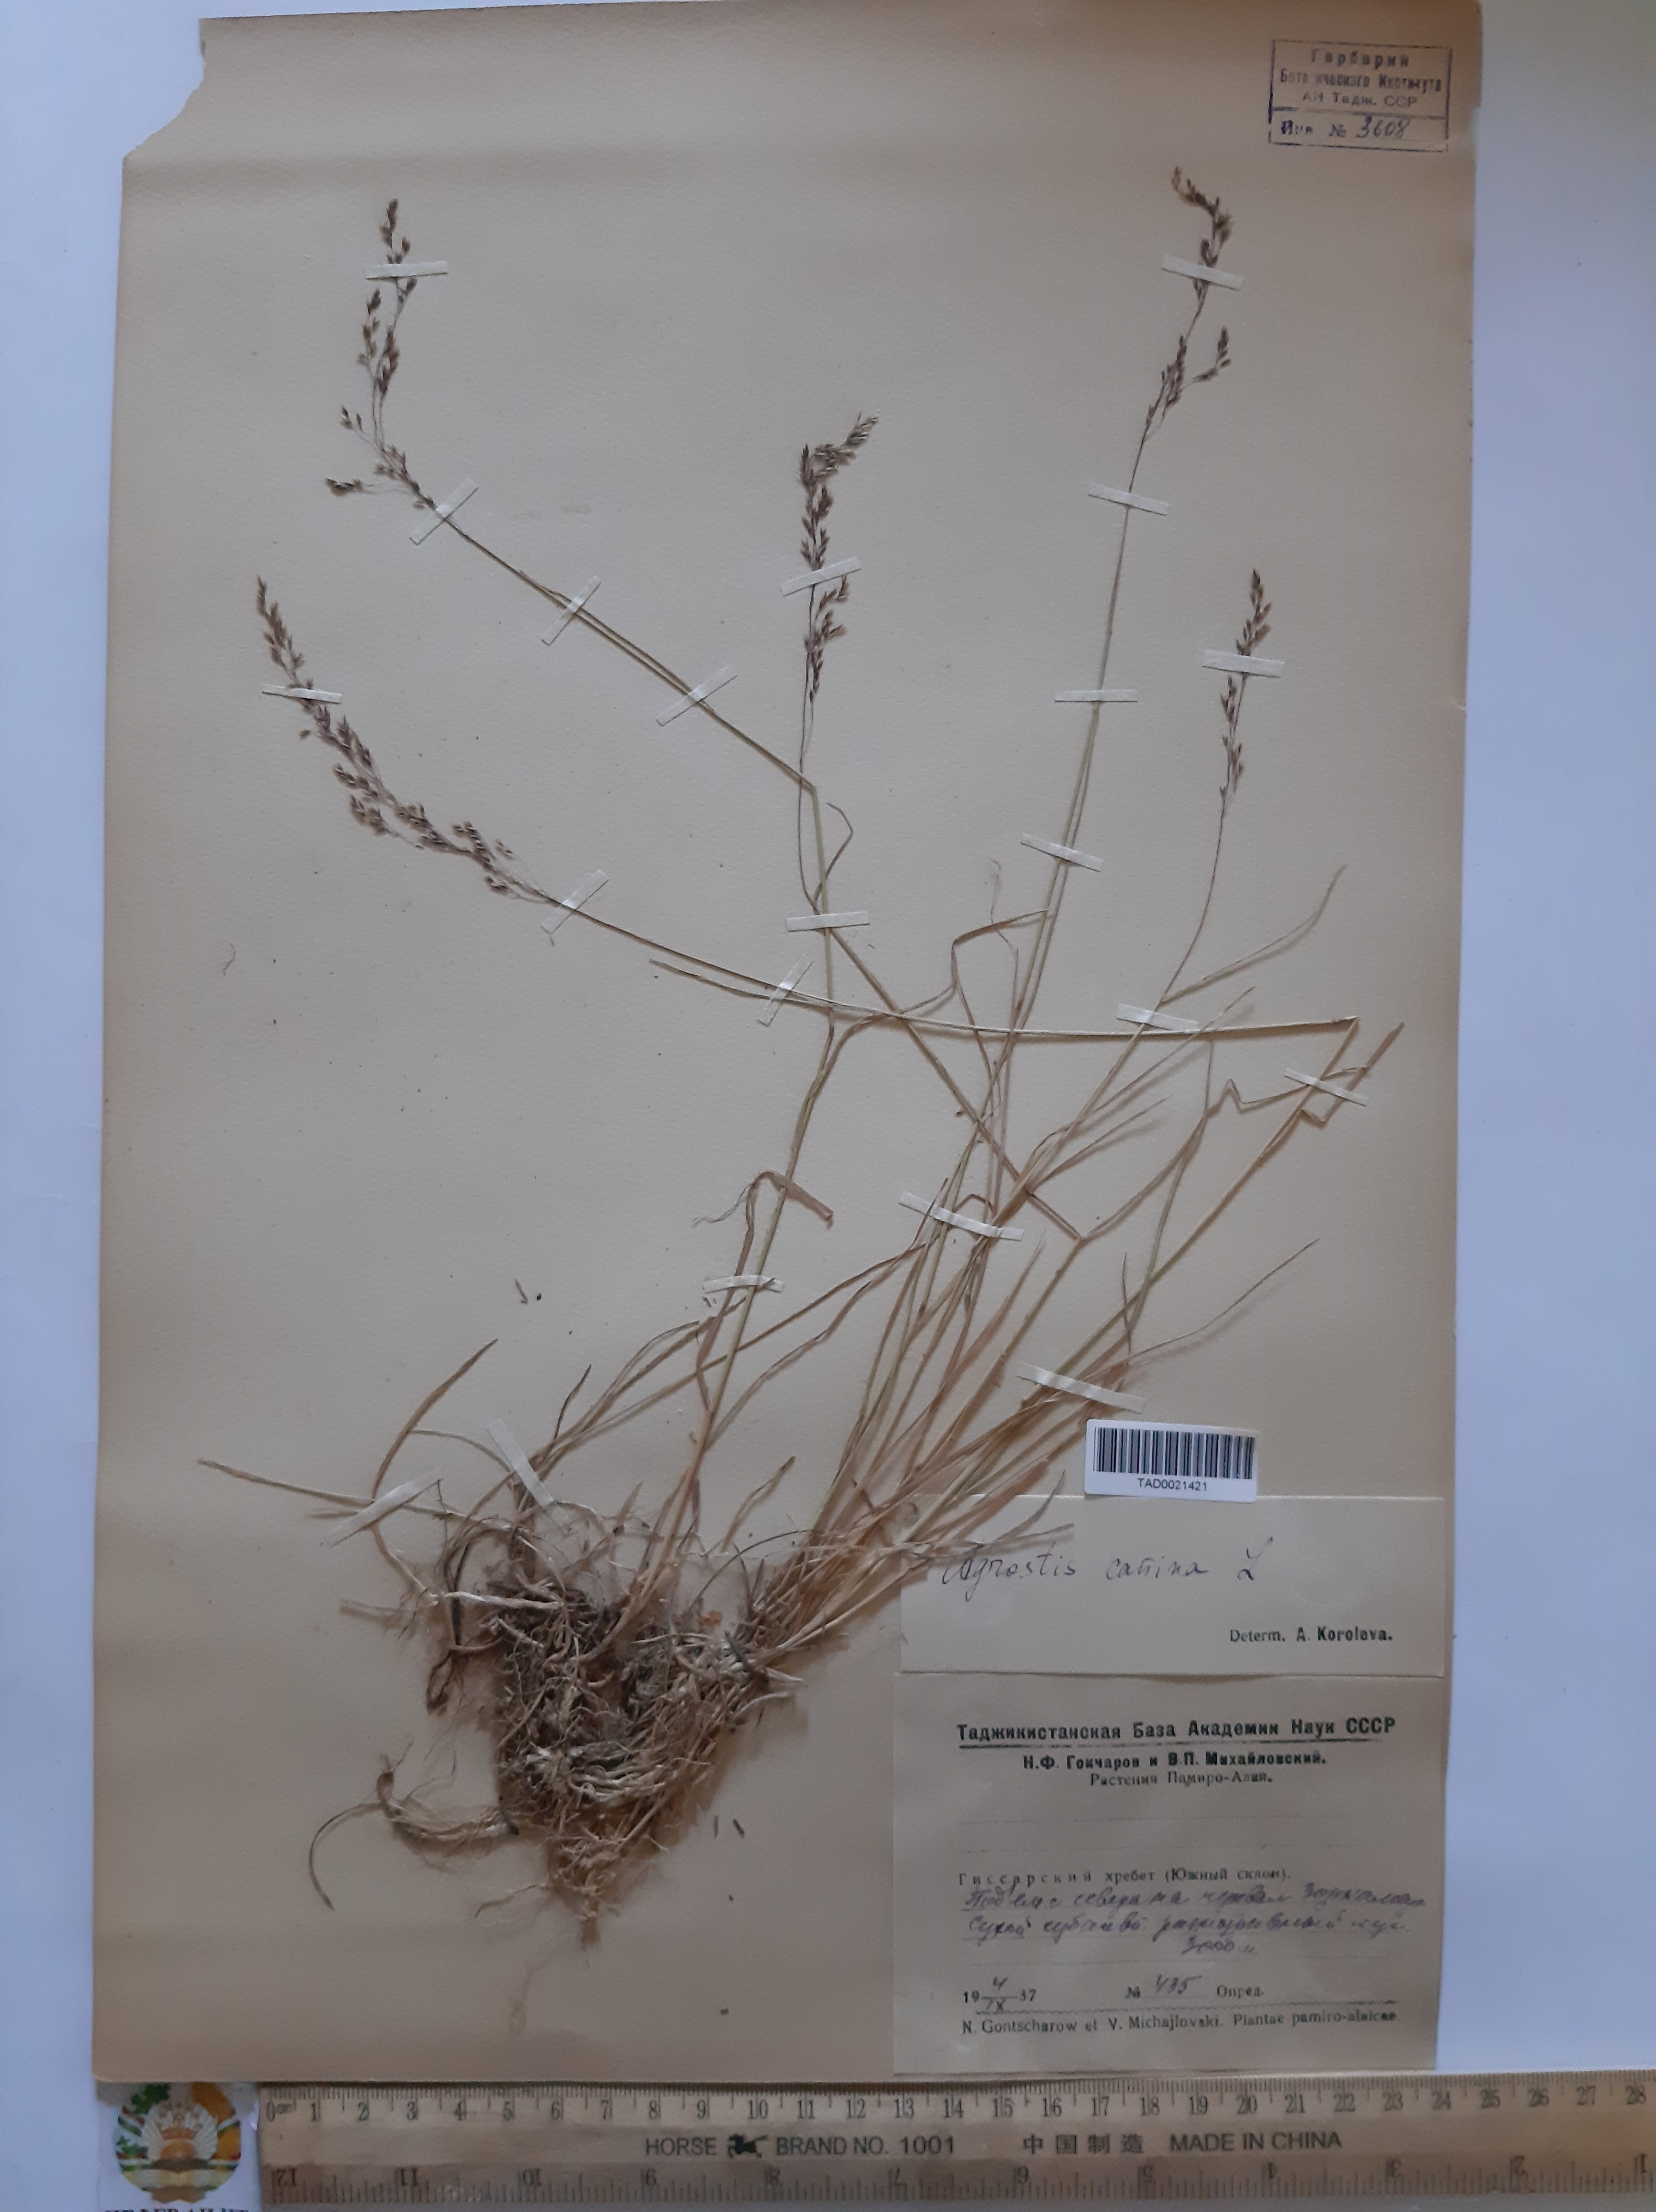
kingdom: Plantae
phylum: Tracheophyta
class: Liliopsida
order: Poales
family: Poaceae
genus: Agrostis
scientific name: Agrostis canina
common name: Velvet bent
